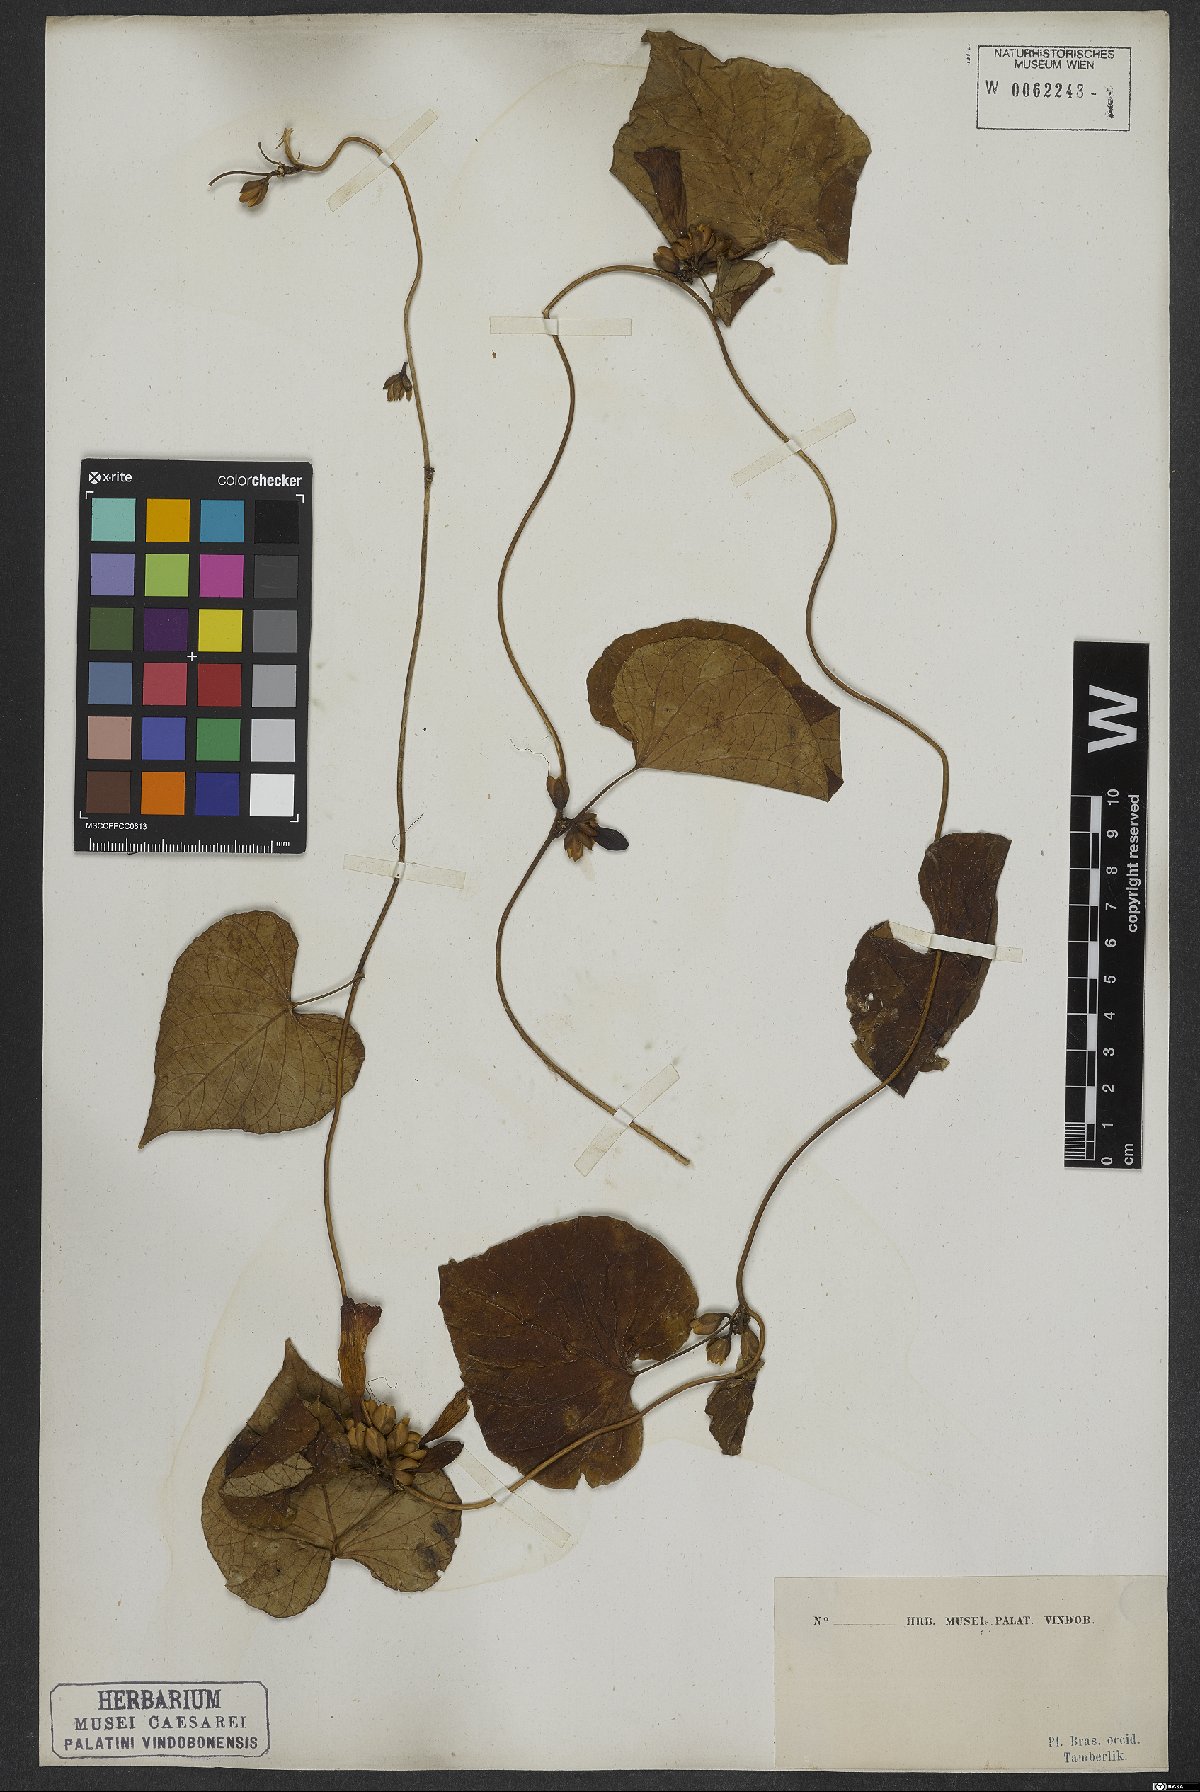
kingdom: Plantae
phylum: Tracheophyta
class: Magnoliopsida
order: Solanales
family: Convolvulaceae
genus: Ipomoea
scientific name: Ipomoea hildebrandtii
